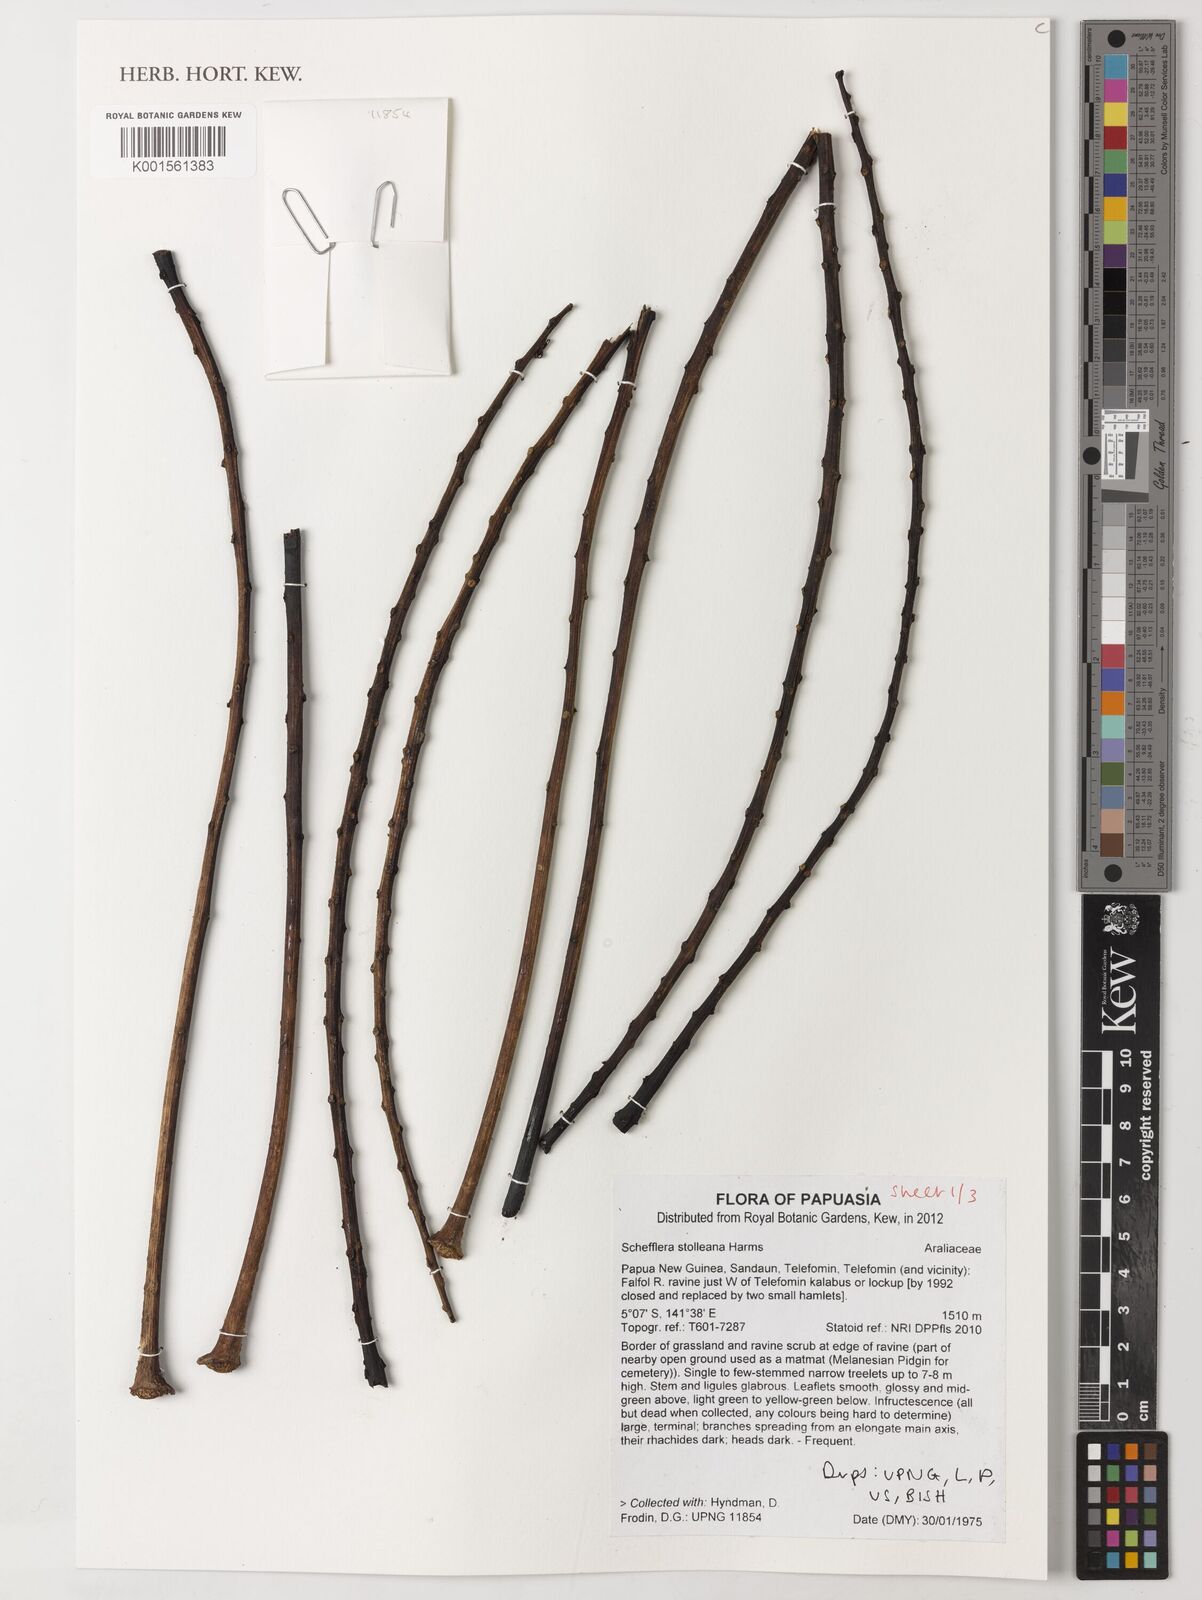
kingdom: Plantae
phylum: Tracheophyta
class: Magnoliopsida
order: Apiales
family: Araliaceae
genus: Heptapleurum
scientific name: Heptapleurum stolleanum
